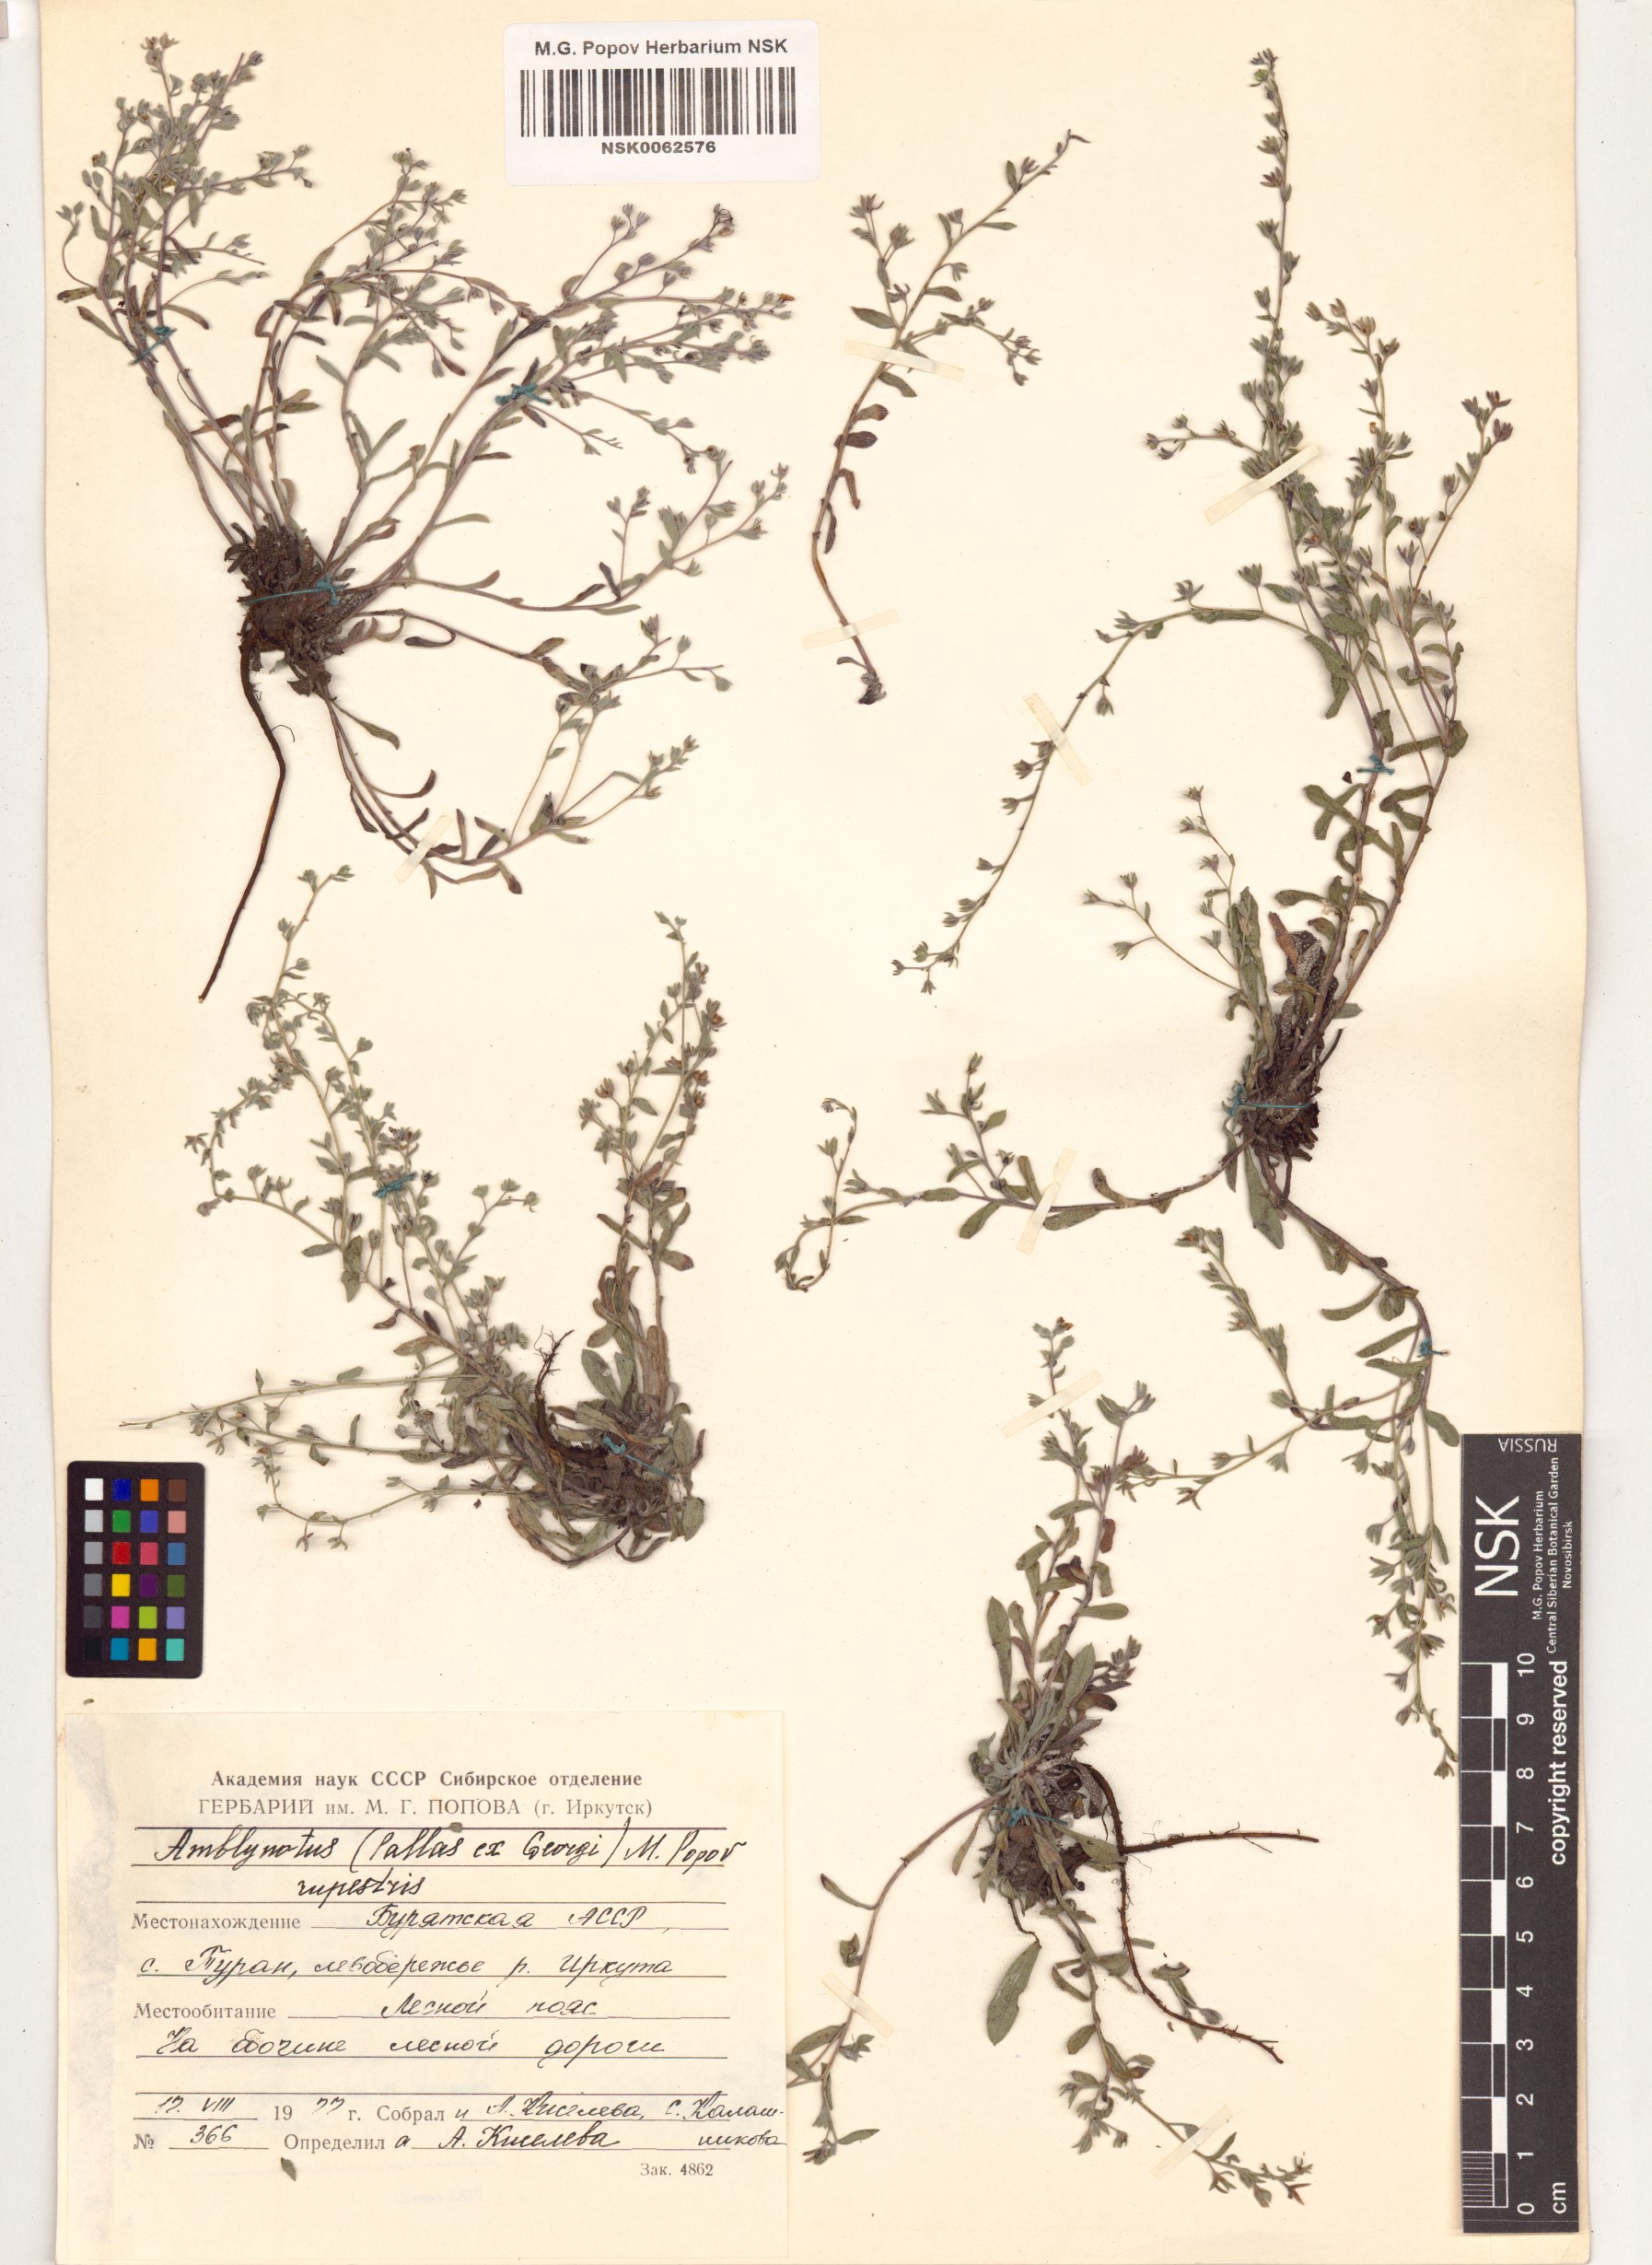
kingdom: Plantae
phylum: Tracheophyta
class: Magnoliopsida
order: Boraginales
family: Boraginaceae
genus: Eritrichium
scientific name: Eritrichium rupestre
